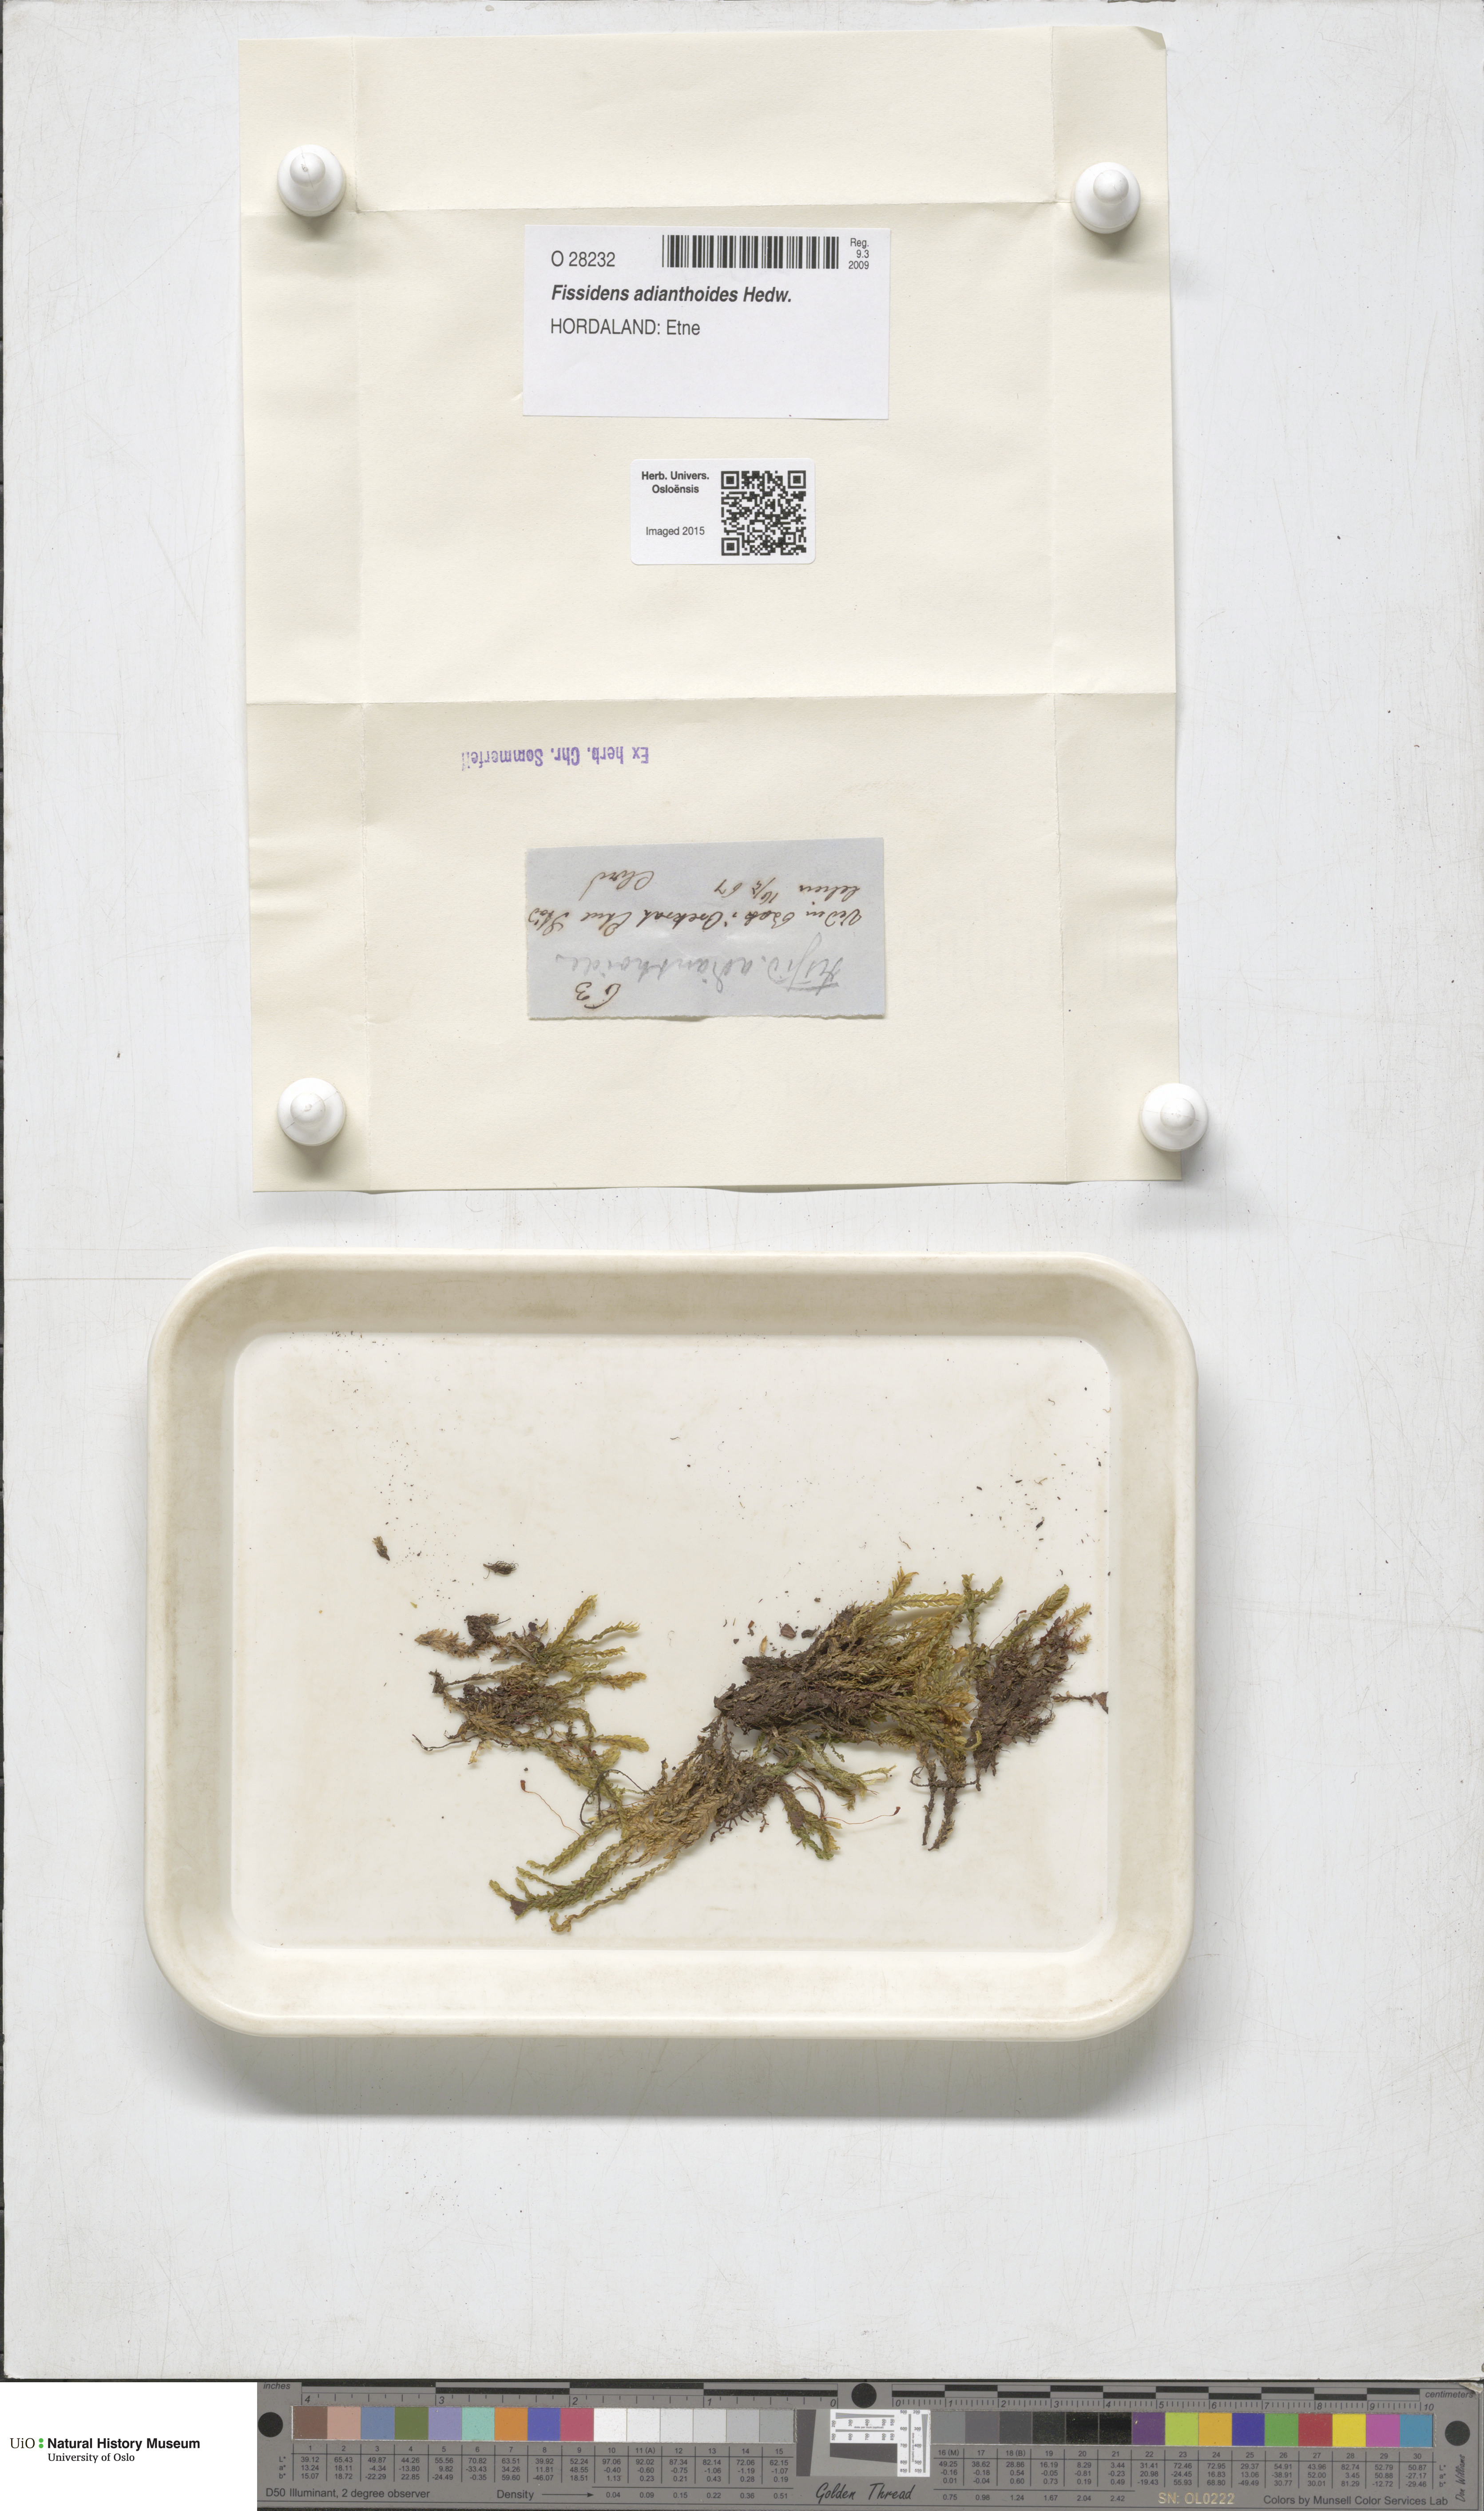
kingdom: Plantae
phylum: Bryophyta
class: Bryopsida
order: Dicranales
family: Fissidentaceae
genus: Fissidens
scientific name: Fissidens adianthoides
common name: Maidenhair pocket moss
